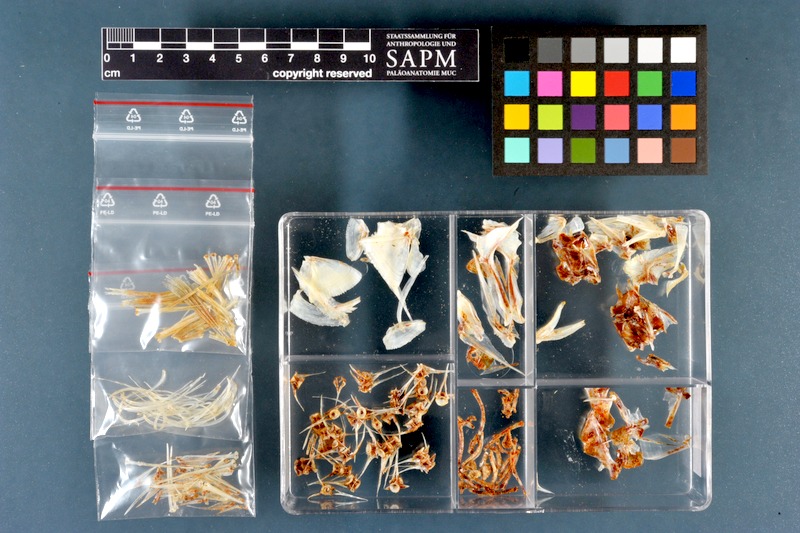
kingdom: Animalia
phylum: Chordata
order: Perciformes
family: Percidae
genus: Perca
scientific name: Perca fluviatilis
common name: Perch
